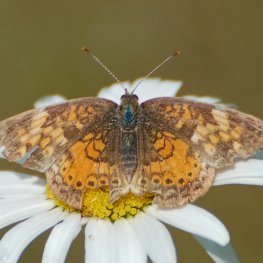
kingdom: Animalia
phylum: Arthropoda
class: Insecta
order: Lepidoptera
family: Nymphalidae
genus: Phyciodes
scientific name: Phyciodes tharos
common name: Northern Crescent
